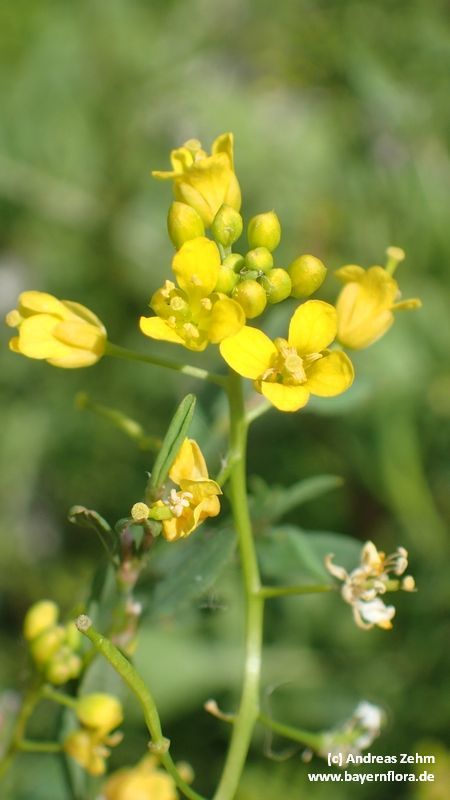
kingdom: Plantae
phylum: Tracheophyta
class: Magnoliopsida
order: Brassicales
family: Brassicaceae
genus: Rorippa
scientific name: Rorippa sylvestris
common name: Creeping yellowcress
